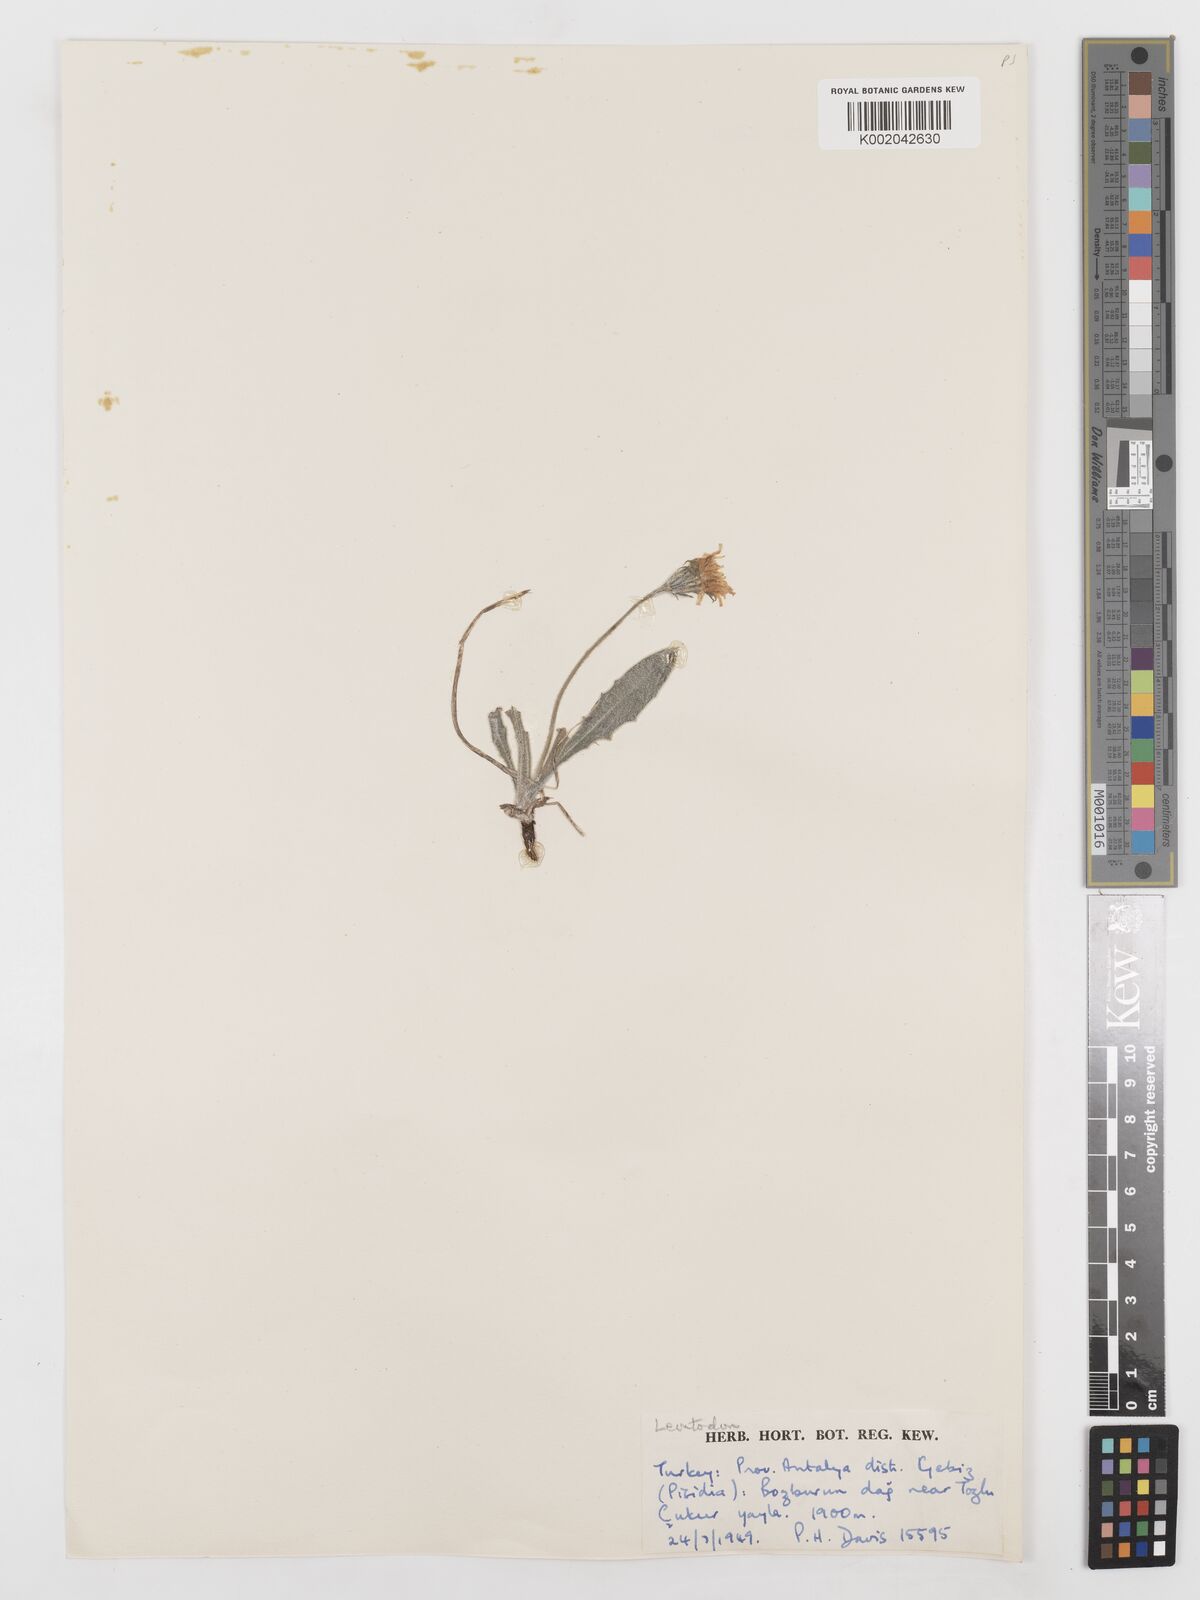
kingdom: Plantae
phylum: Tracheophyta
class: Magnoliopsida
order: Asterales
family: Asteraceae
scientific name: Asteraceae
